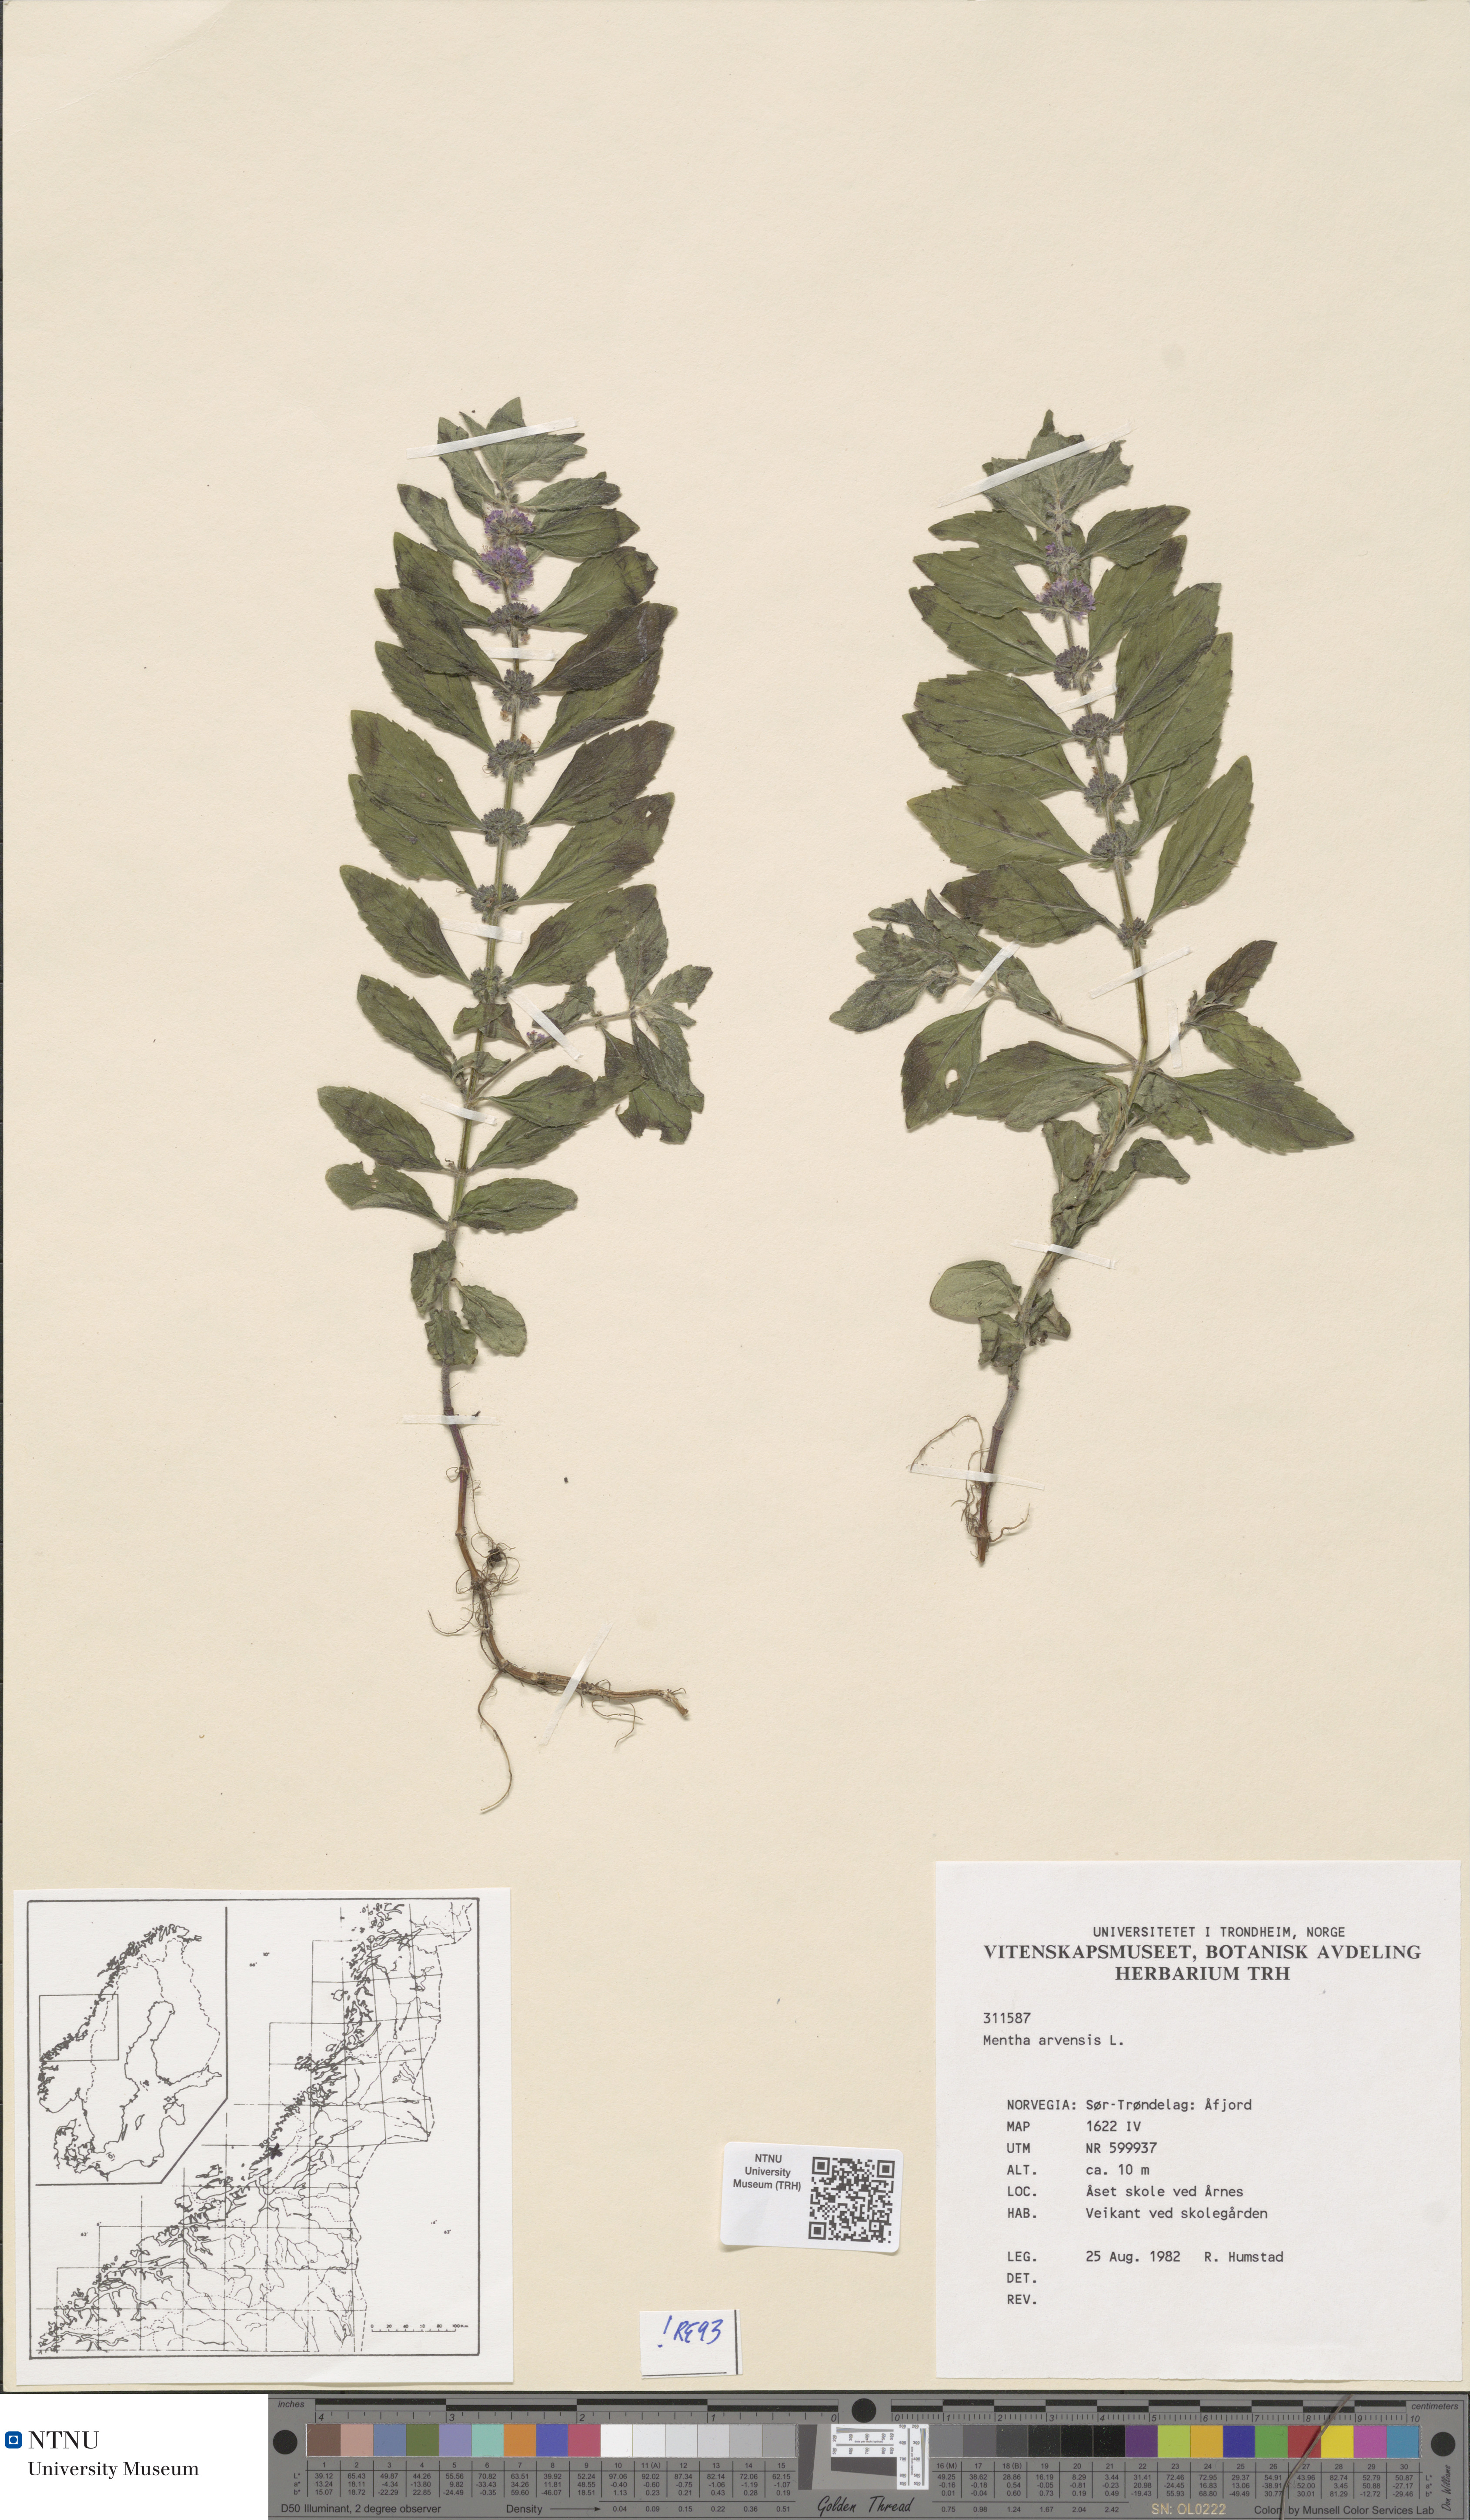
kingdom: Plantae
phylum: Tracheophyta
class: Magnoliopsida
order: Lamiales
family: Lamiaceae
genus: Mentha
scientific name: Mentha arvensis
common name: Corn mint
